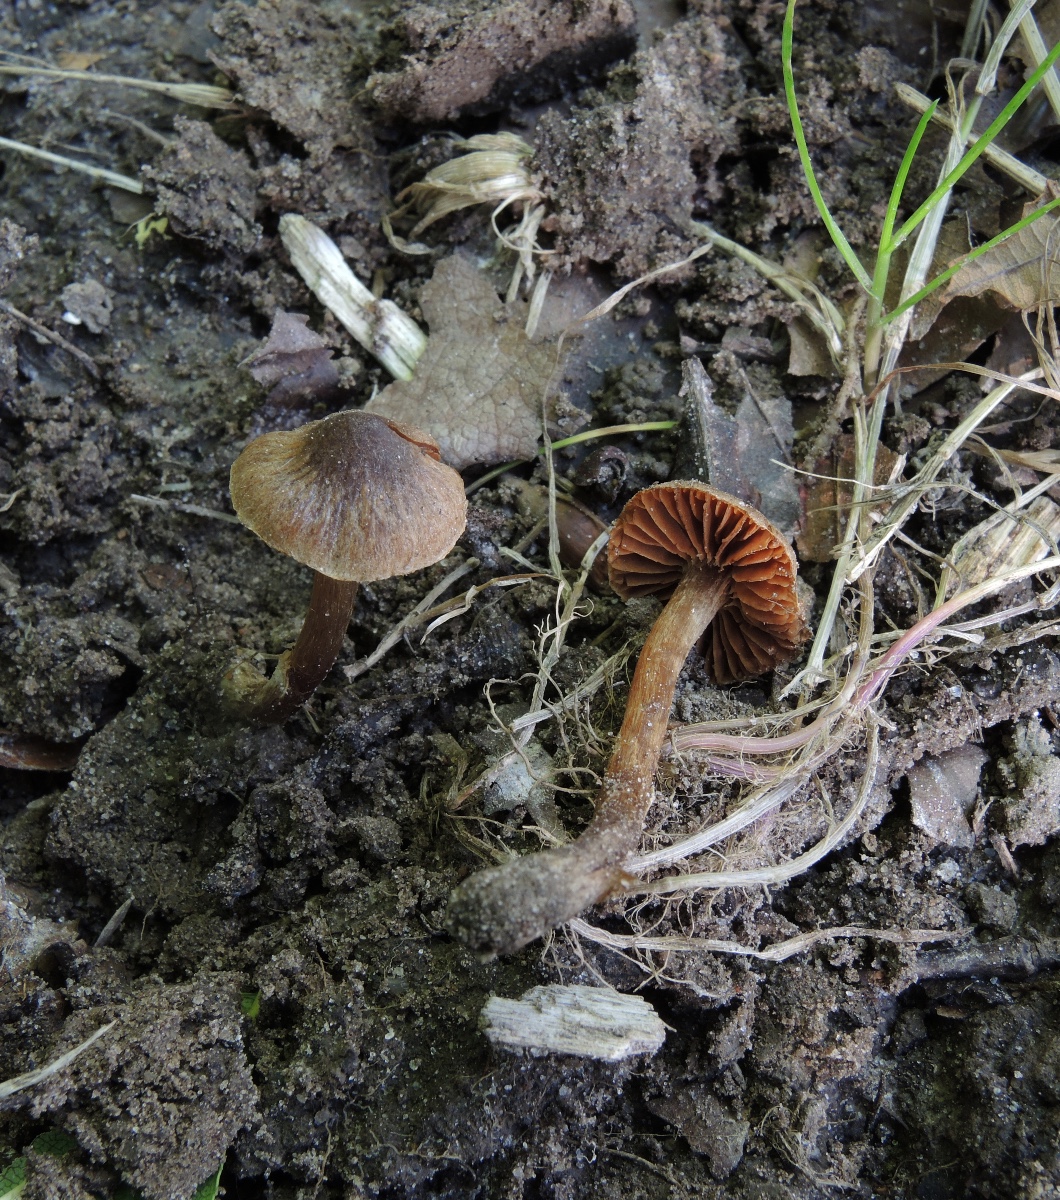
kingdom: Fungi
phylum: Basidiomycota
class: Agaricomycetes
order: Agaricales
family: Cortinariaceae
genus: Cortinarius
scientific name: Cortinarius megacystidiosus
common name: lavbæltet slørhat
